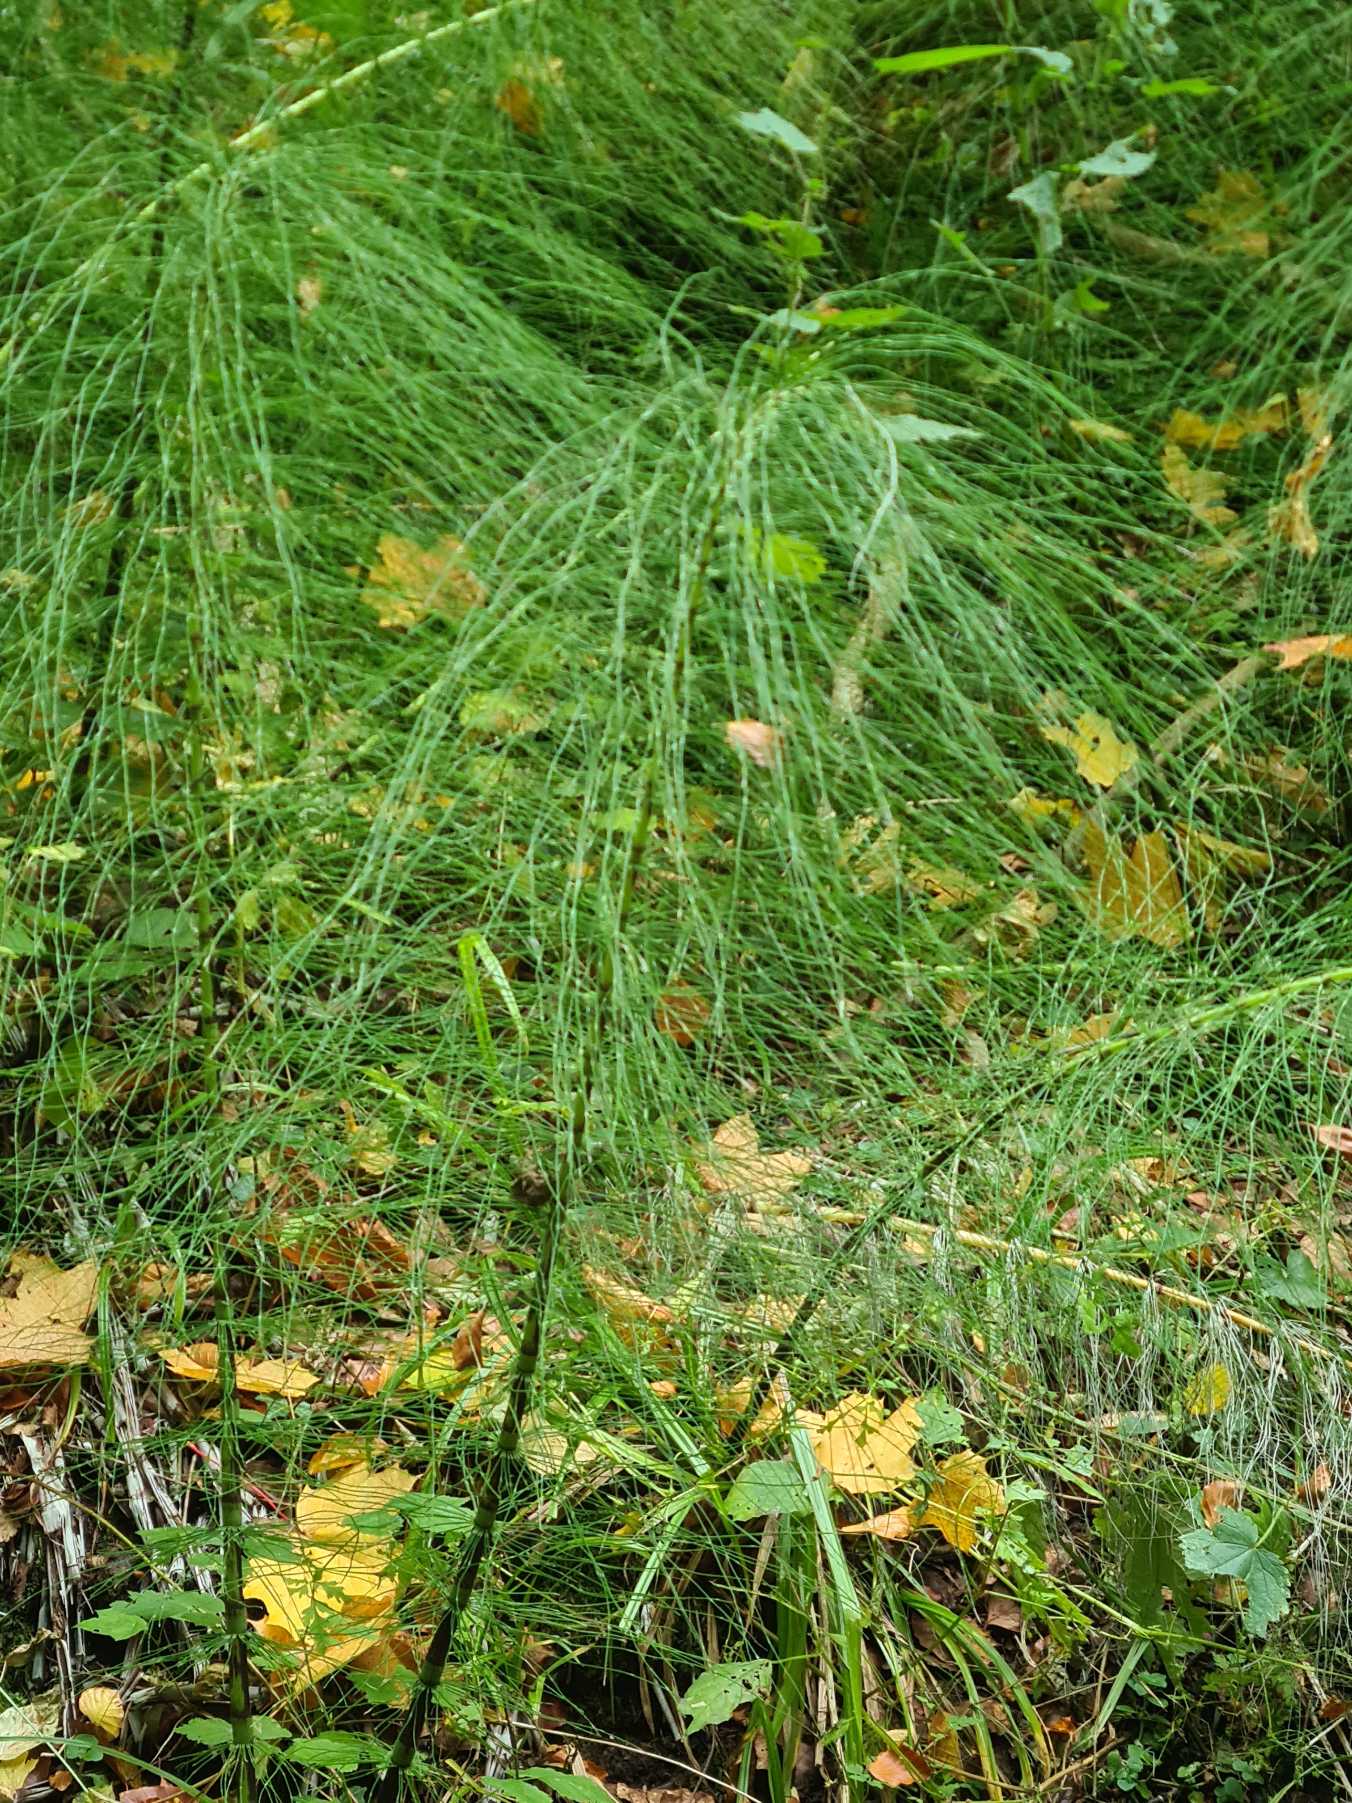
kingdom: Plantae
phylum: Tracheophyta
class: Polypodiopsida
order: Equisetales
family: Equisetaceae
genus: Equisetum
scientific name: Equisetum telmateia
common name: Elfenbens-padderok
